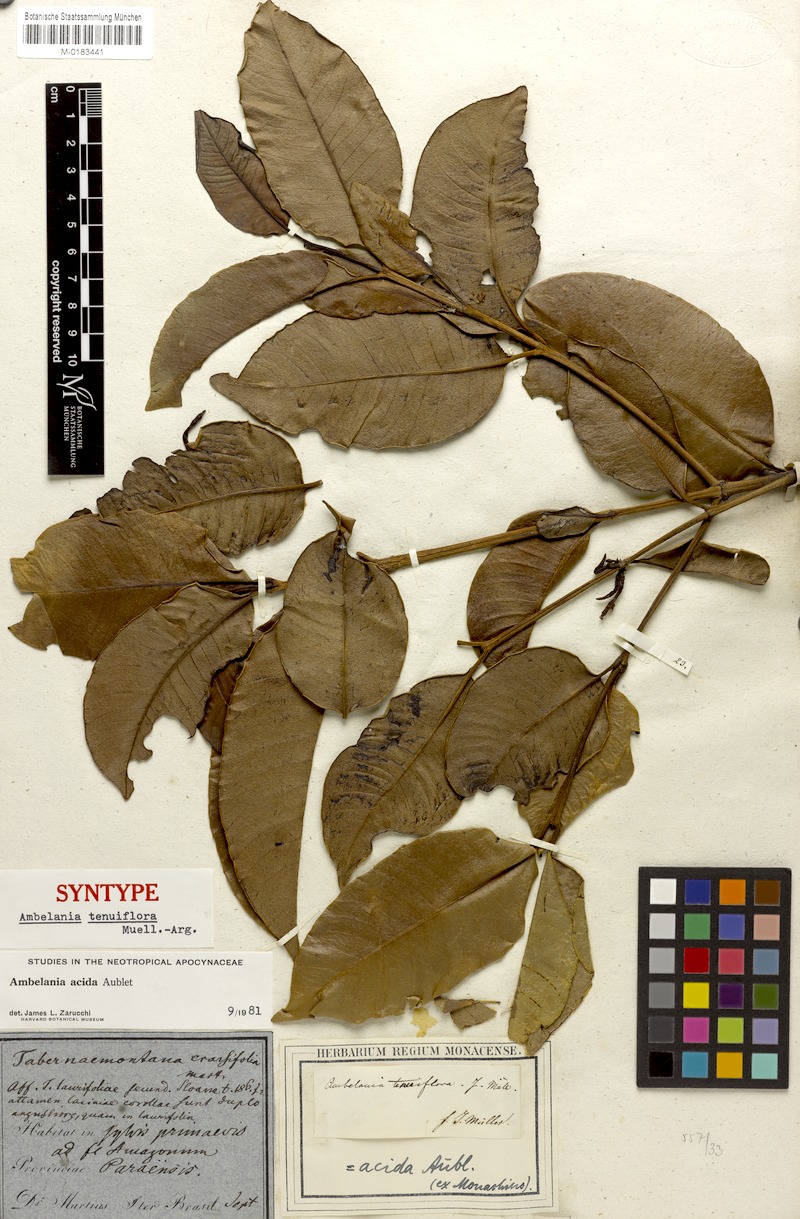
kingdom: Plantae
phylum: Tracheophyta
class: Magnoliopsida
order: Gentianales
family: Apocynaceae
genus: Ambelania
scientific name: Ambelania acida
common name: Bagasse
